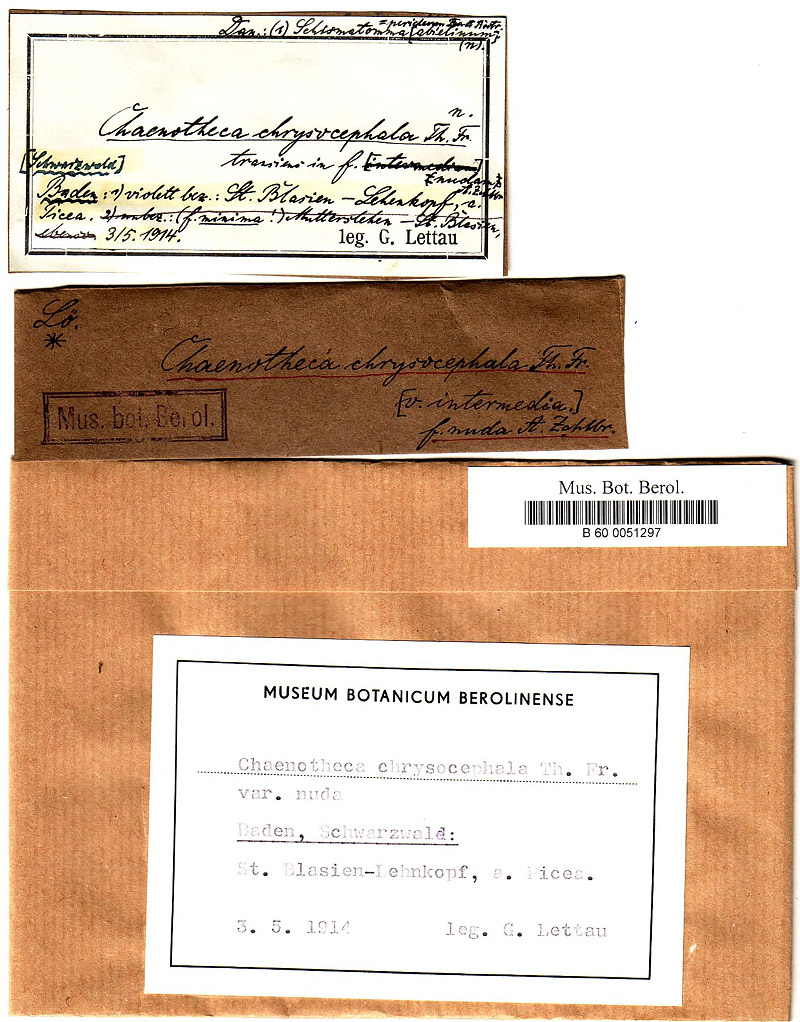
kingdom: Fungi
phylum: Ascomycota
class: Arthoniomycetes
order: Arthoniales
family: Roccellaceae
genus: Lecanactis
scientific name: Lecanactis abietina
